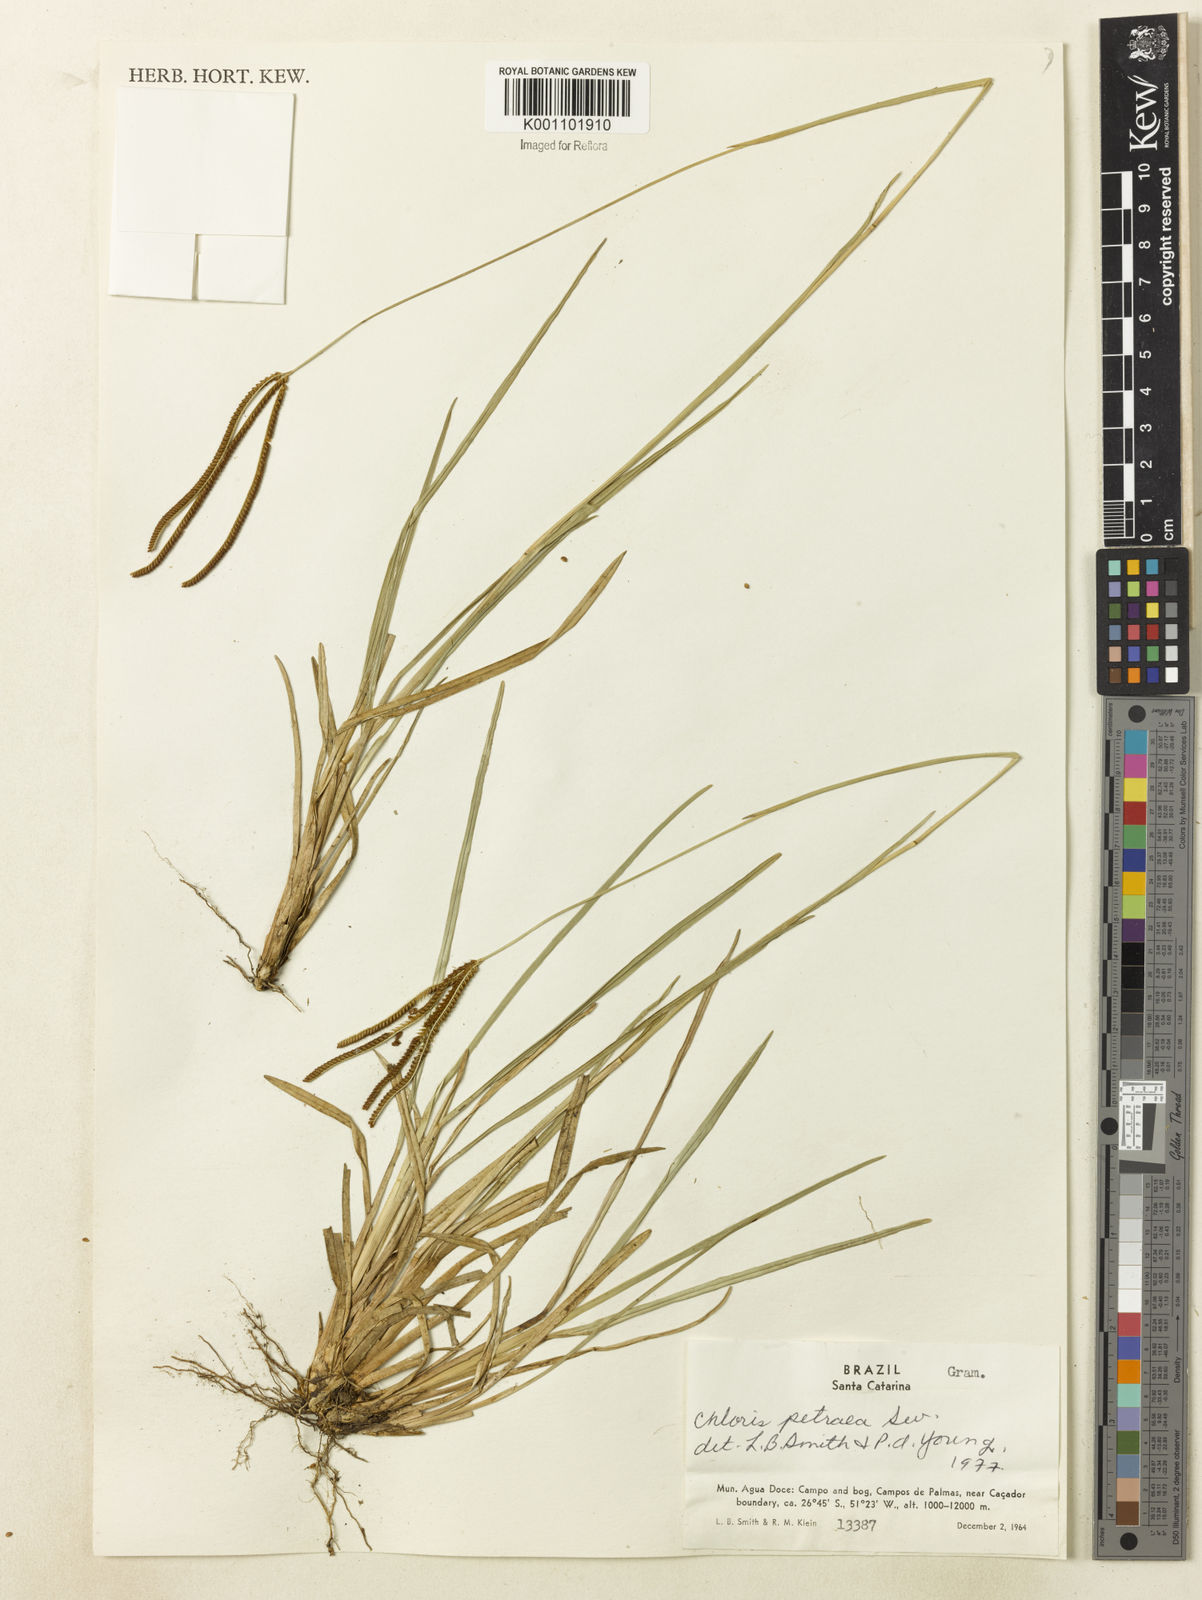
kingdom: Plantae
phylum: Tracheophyta
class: Liliopsida
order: Poales
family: Poaceae
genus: Eustachys
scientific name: Eustachys uliginosa
